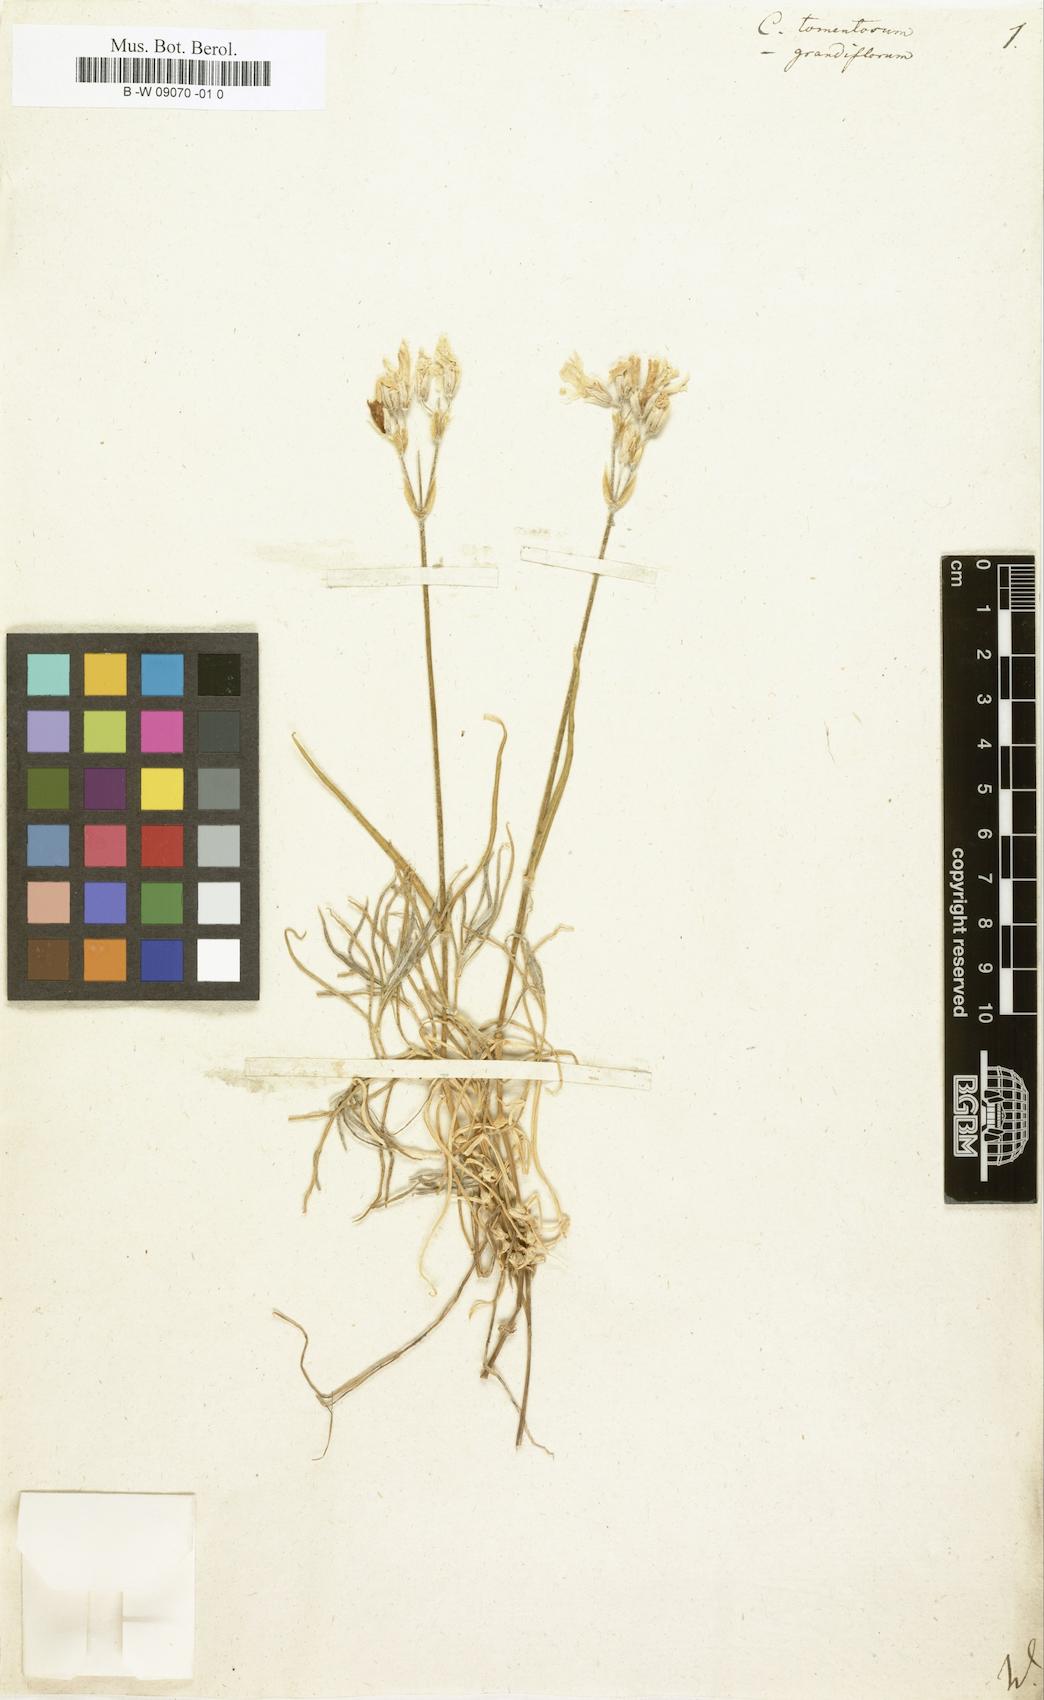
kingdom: Plantae
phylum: Tracheophyta
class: Magnoliopsida
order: Caryophyllales
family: Caryophyllaceae
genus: Cerastium
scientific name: Cerastium tomentosum
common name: Snow-in-summer
